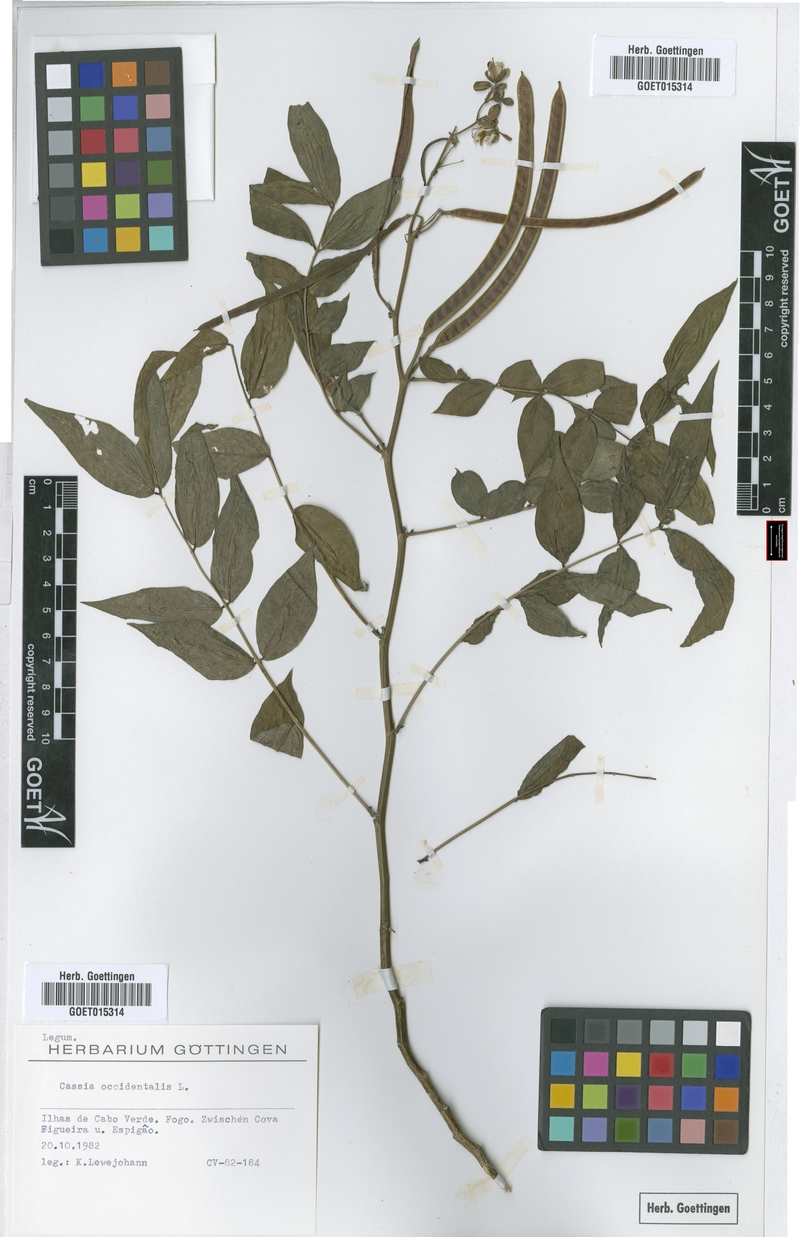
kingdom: Plantae
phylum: Tracheophyta
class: Magnoliopsida
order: Fabales
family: Fabaceae
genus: Senna
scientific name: Senna occidentalis
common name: Septicweed
